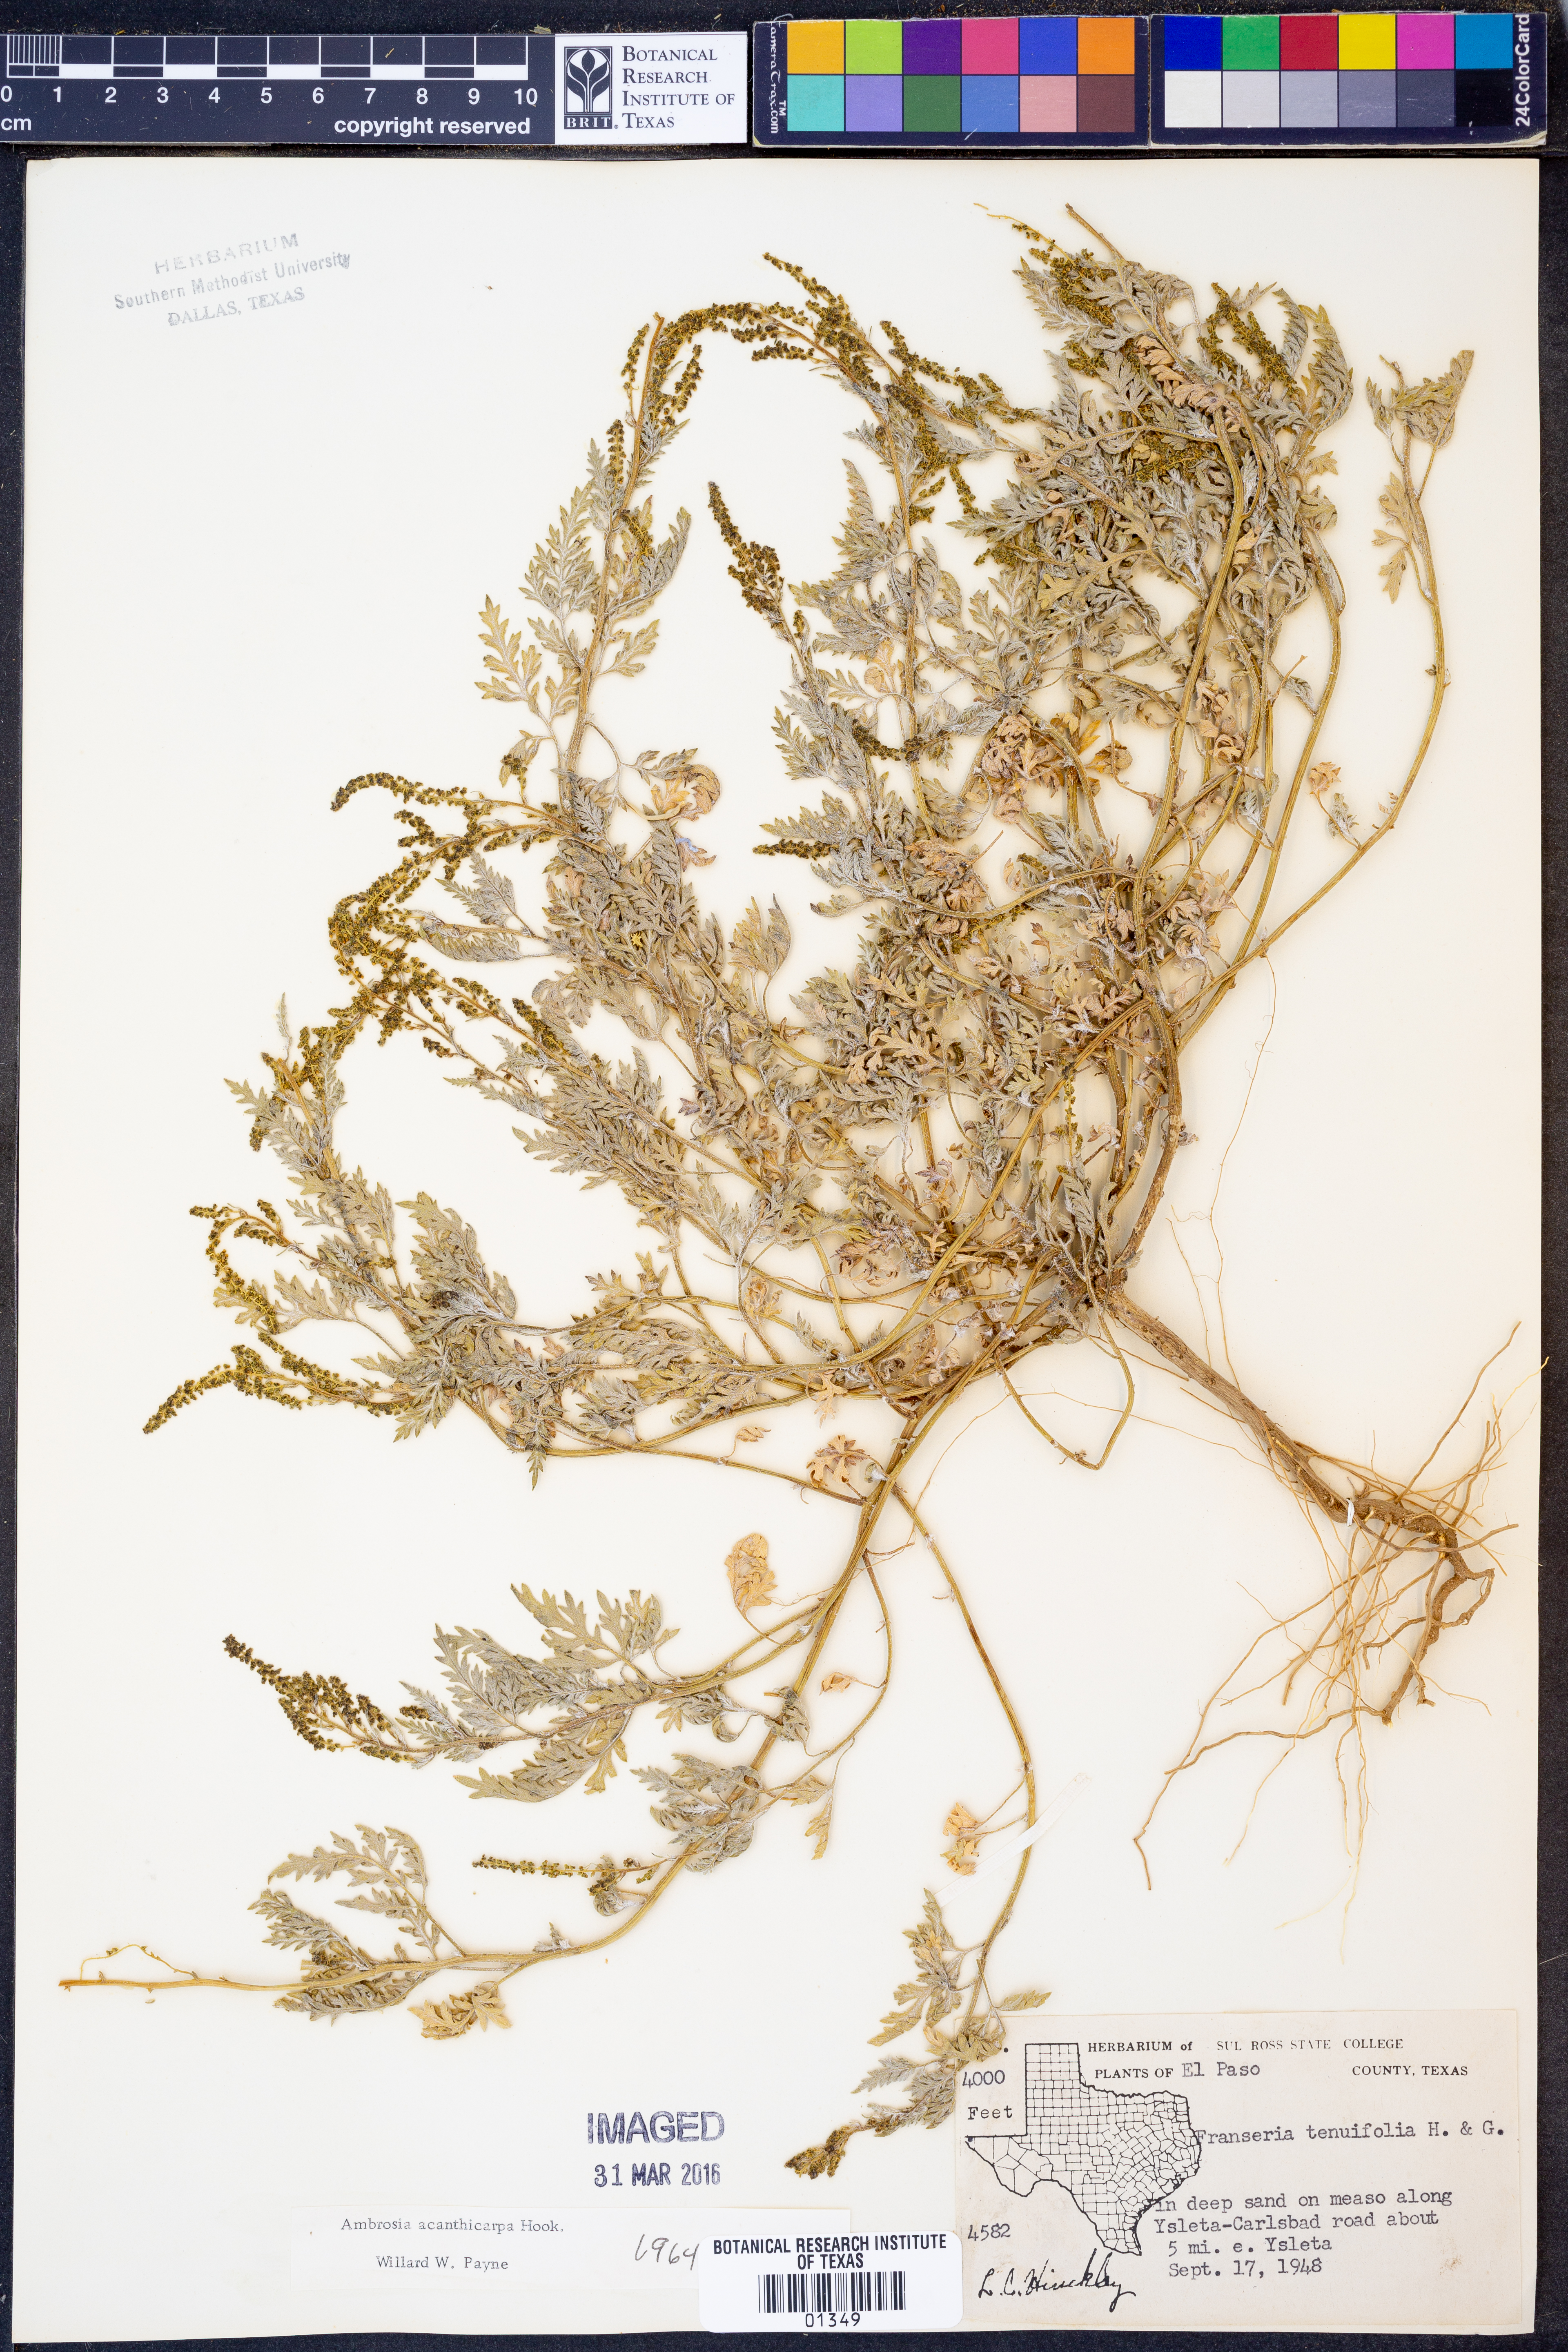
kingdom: Plantae
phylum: Tracheophyta
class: Magnoliopsida
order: Asterales
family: Asteraceae
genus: Ambrosia
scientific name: Ambrosia acanthicarpa
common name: Hooker's bur ragweed
